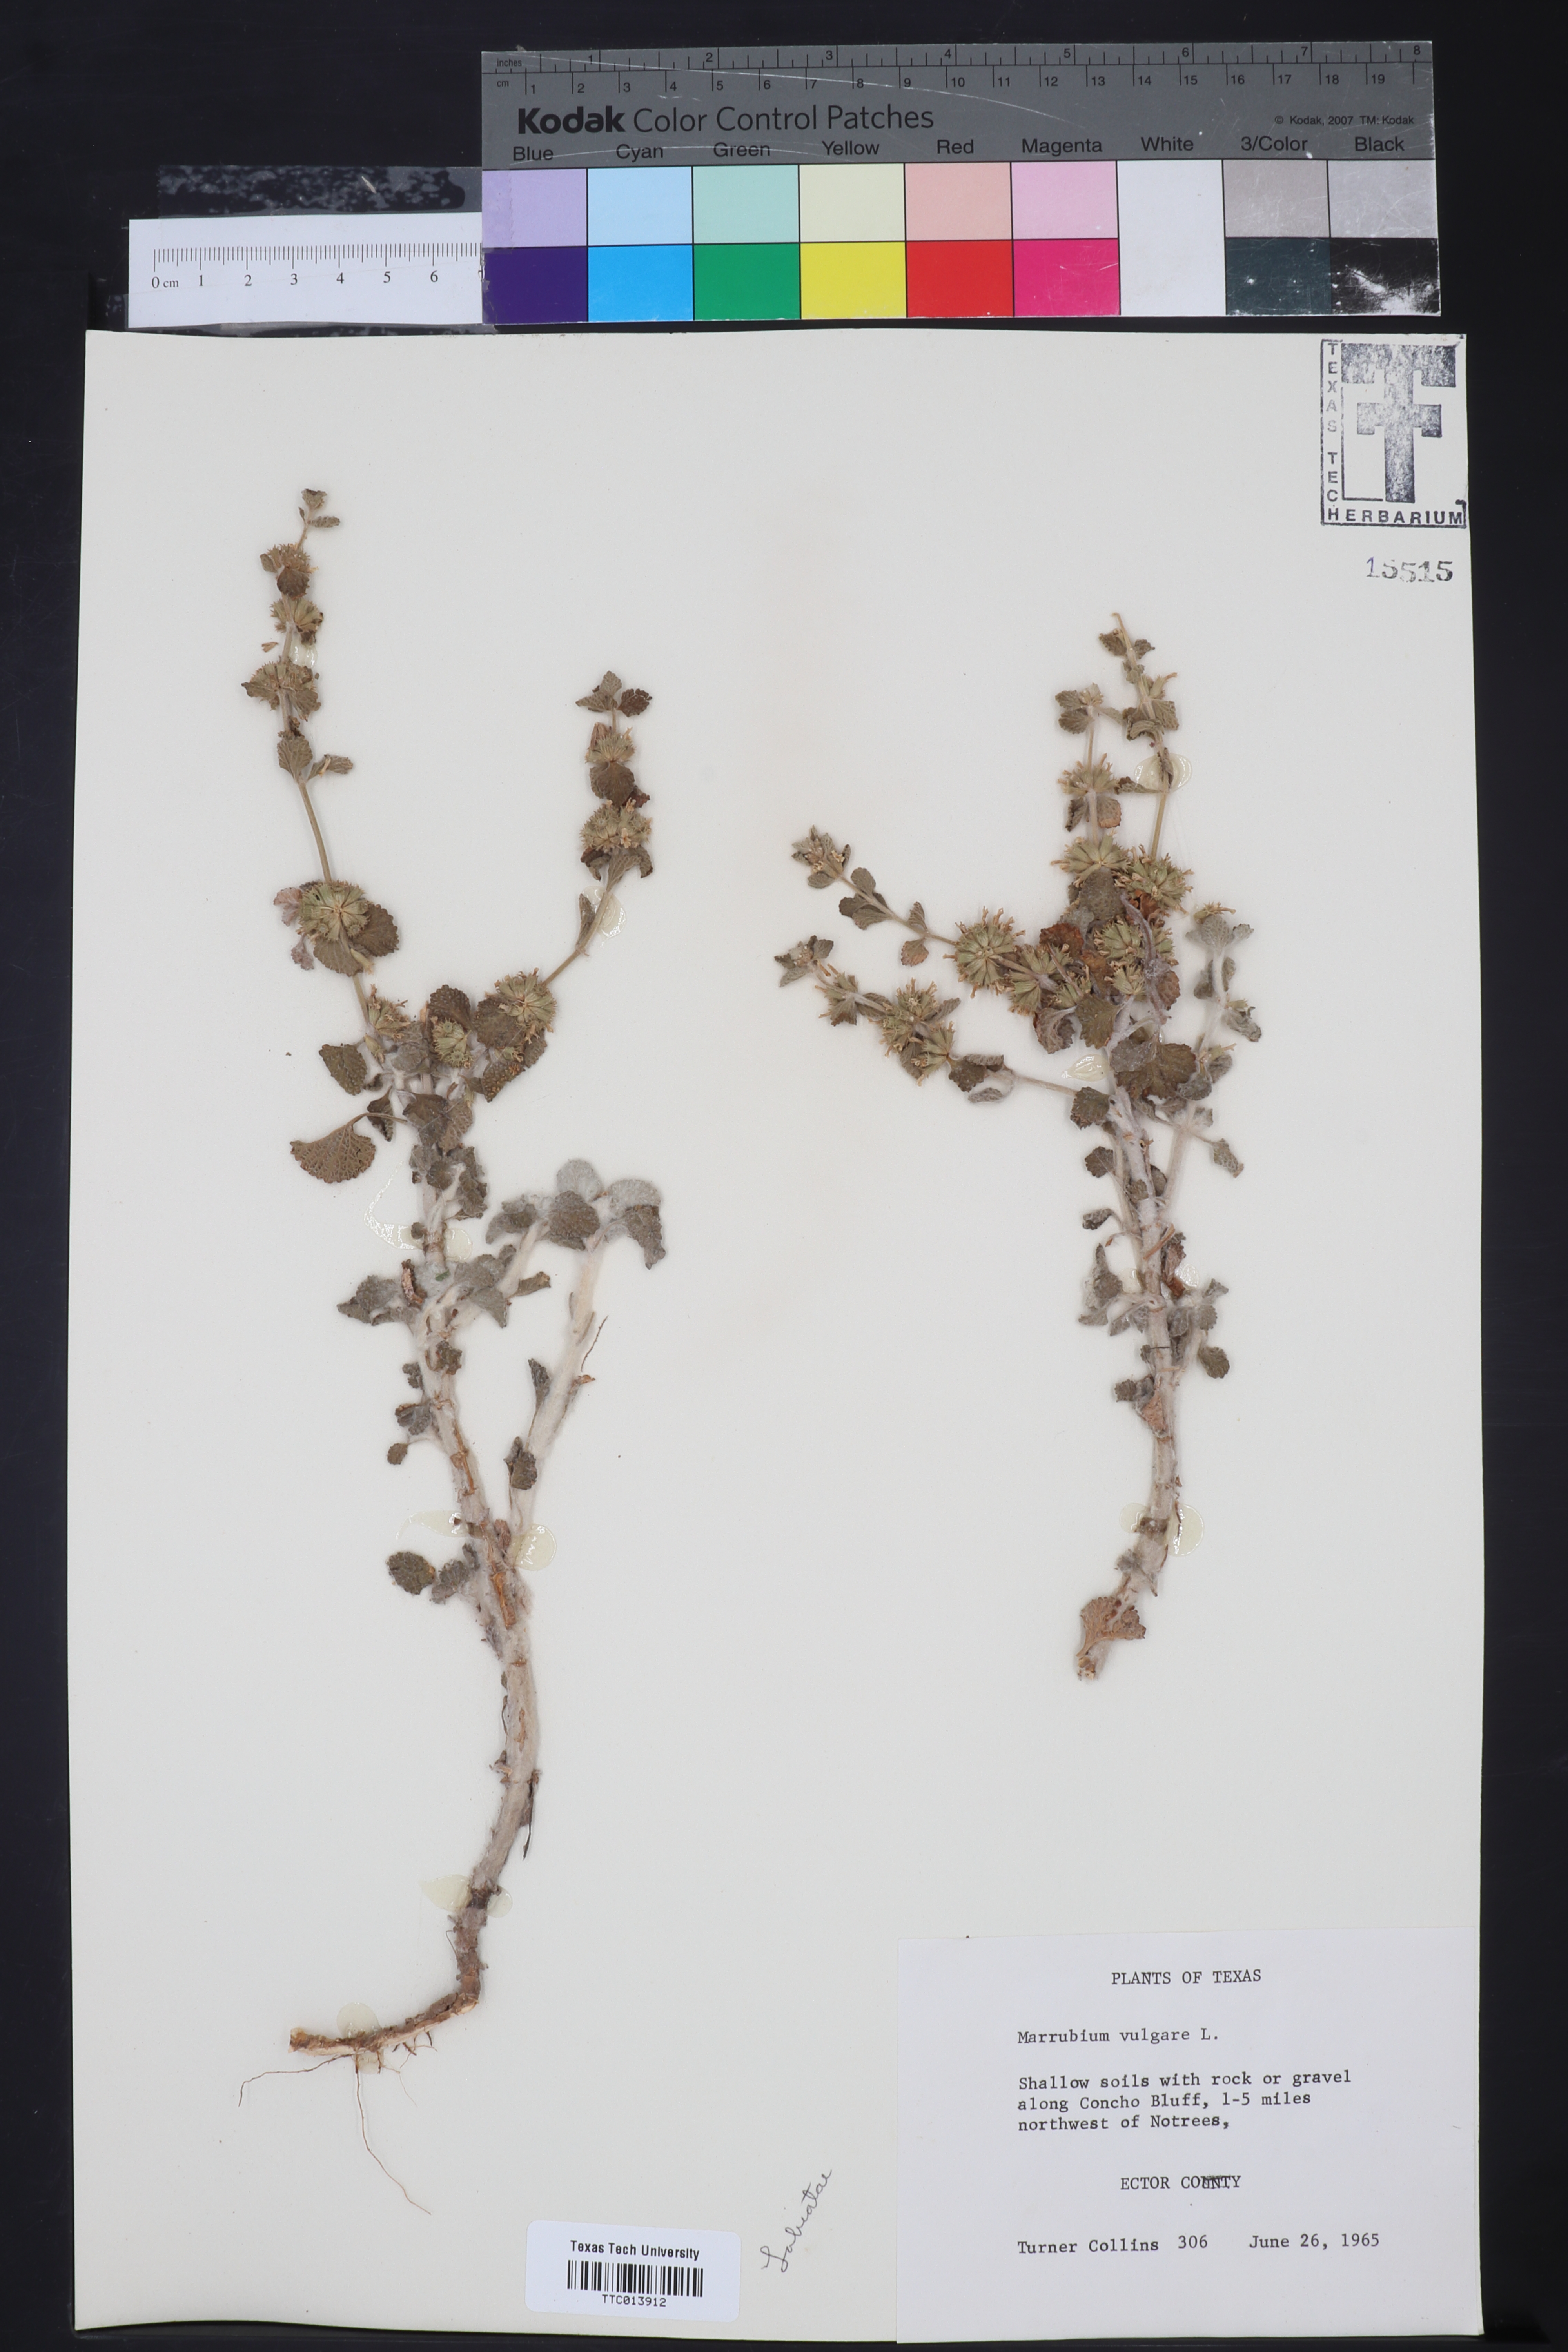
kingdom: Plantae
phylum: Tracheophyta
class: Magnoliopsida
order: Lamiales
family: Lamiaceae
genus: Marrubium
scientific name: Marrubium vulgare
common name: Horehound
